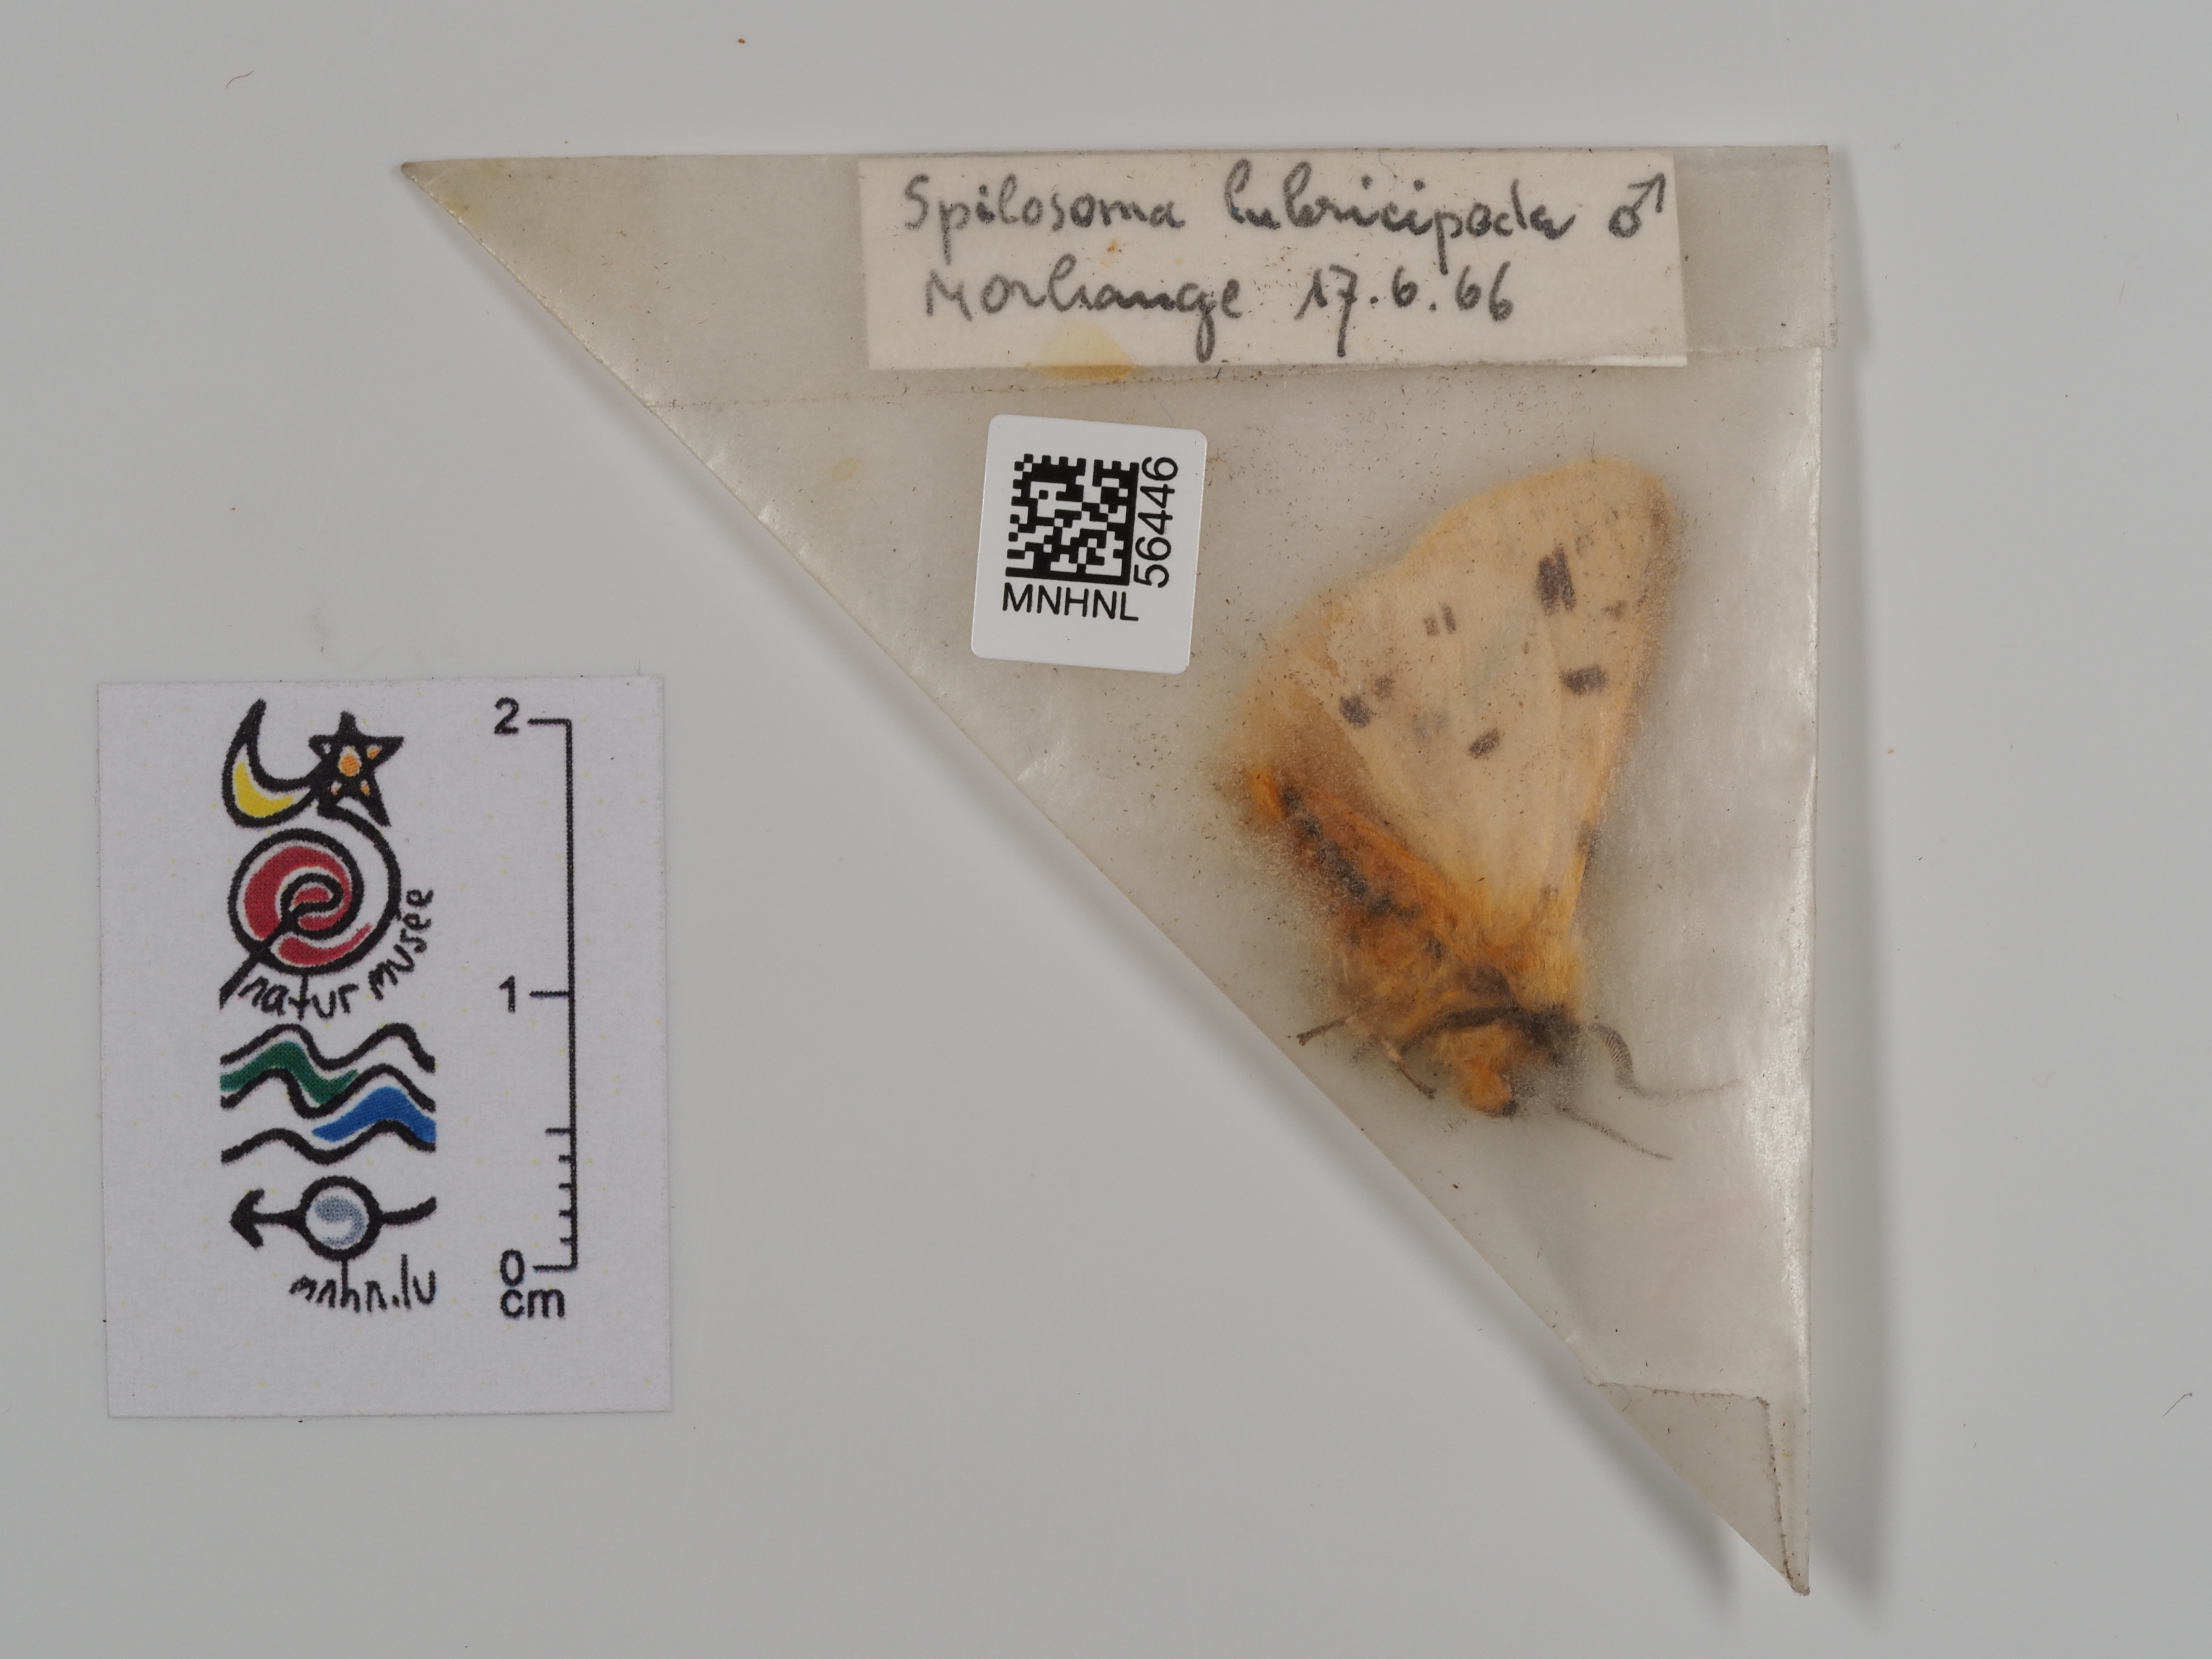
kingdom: Animalia
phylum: Arthropoda
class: Insecta
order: Lepidoptera
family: Erebidae
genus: Spilosoma
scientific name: Spilosoma lubricipeda
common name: White ermine
